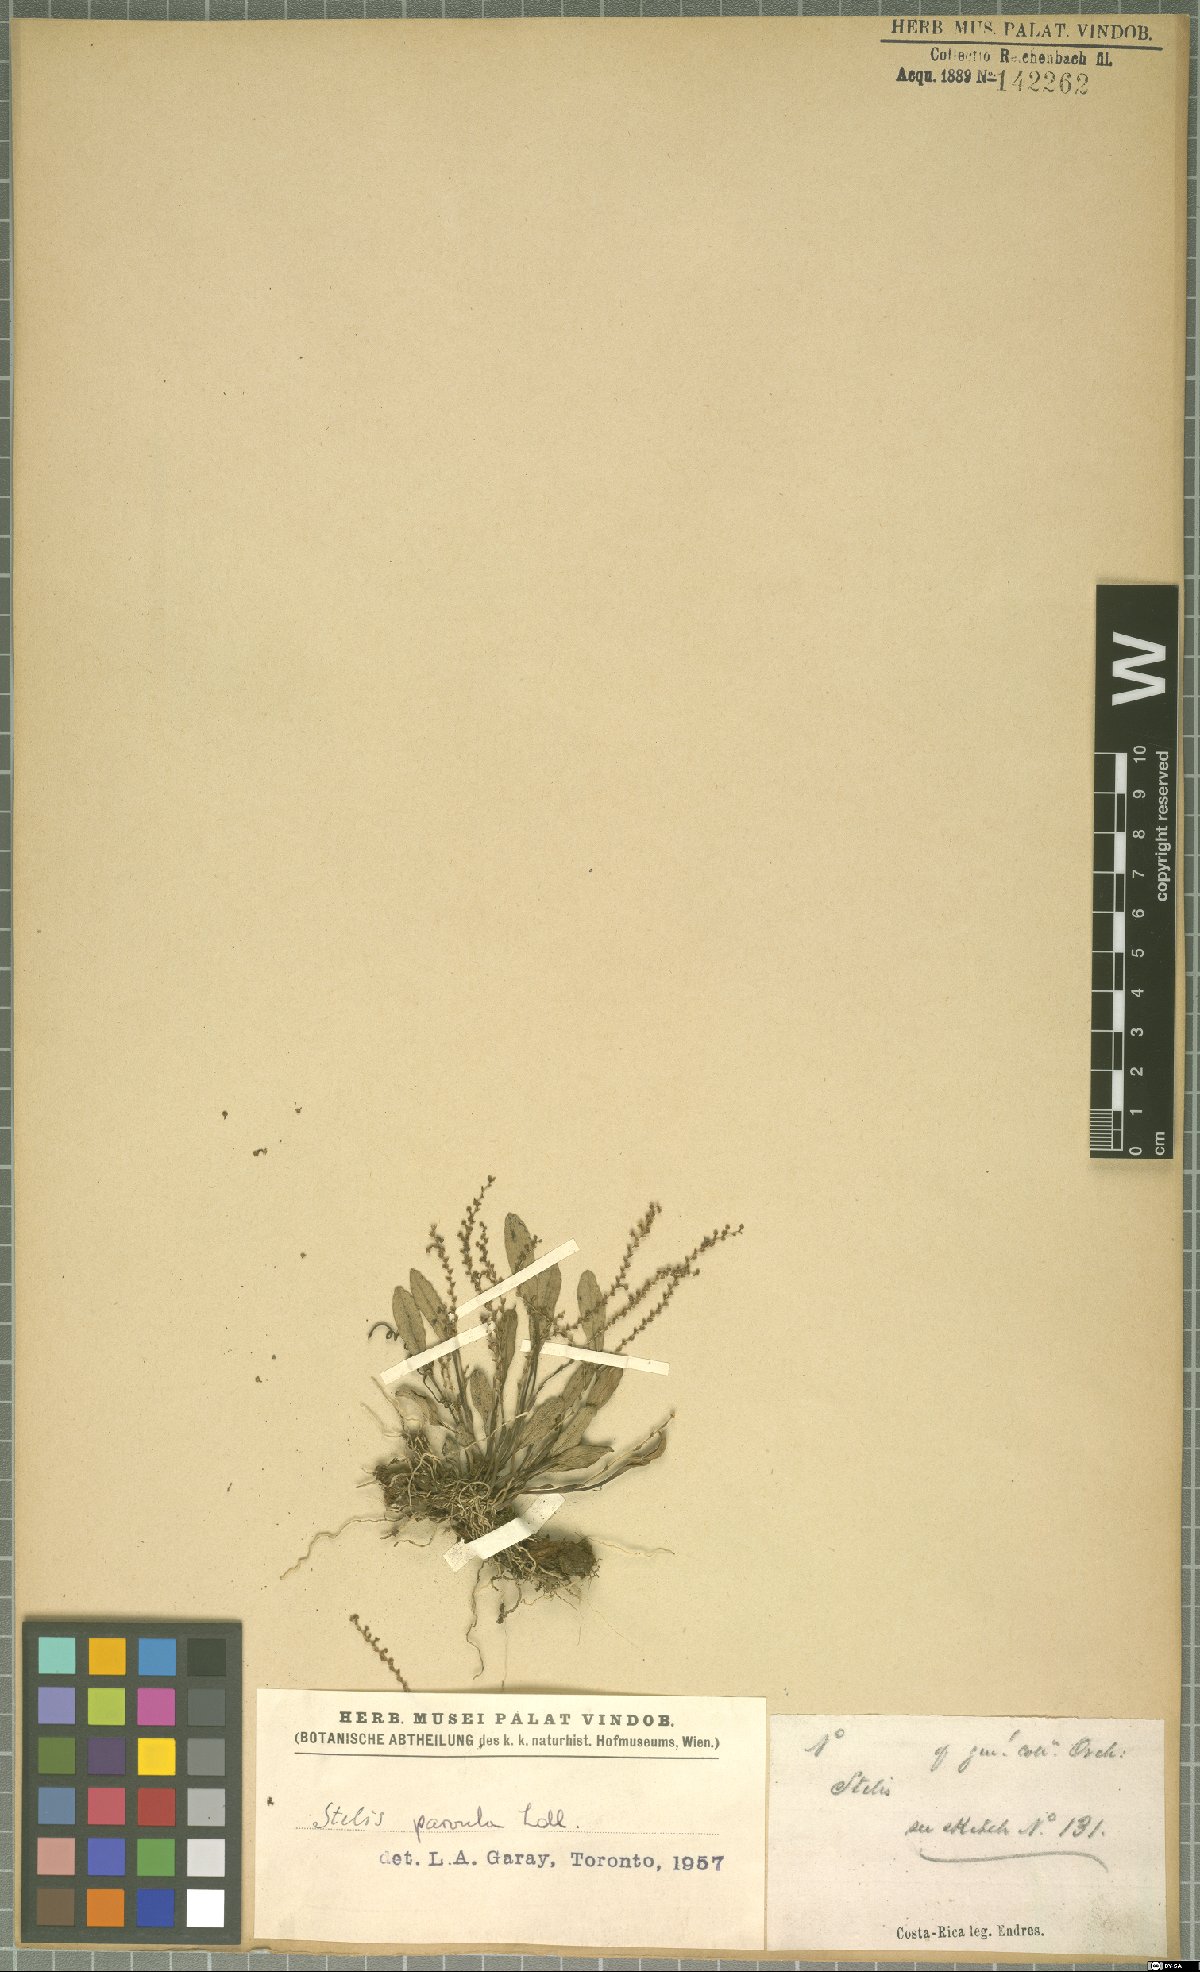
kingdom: Plantae
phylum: Tracheophyta
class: Liliopsida
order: Asparagales
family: Orchidaceae
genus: Stelis
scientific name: Stelis parvula
